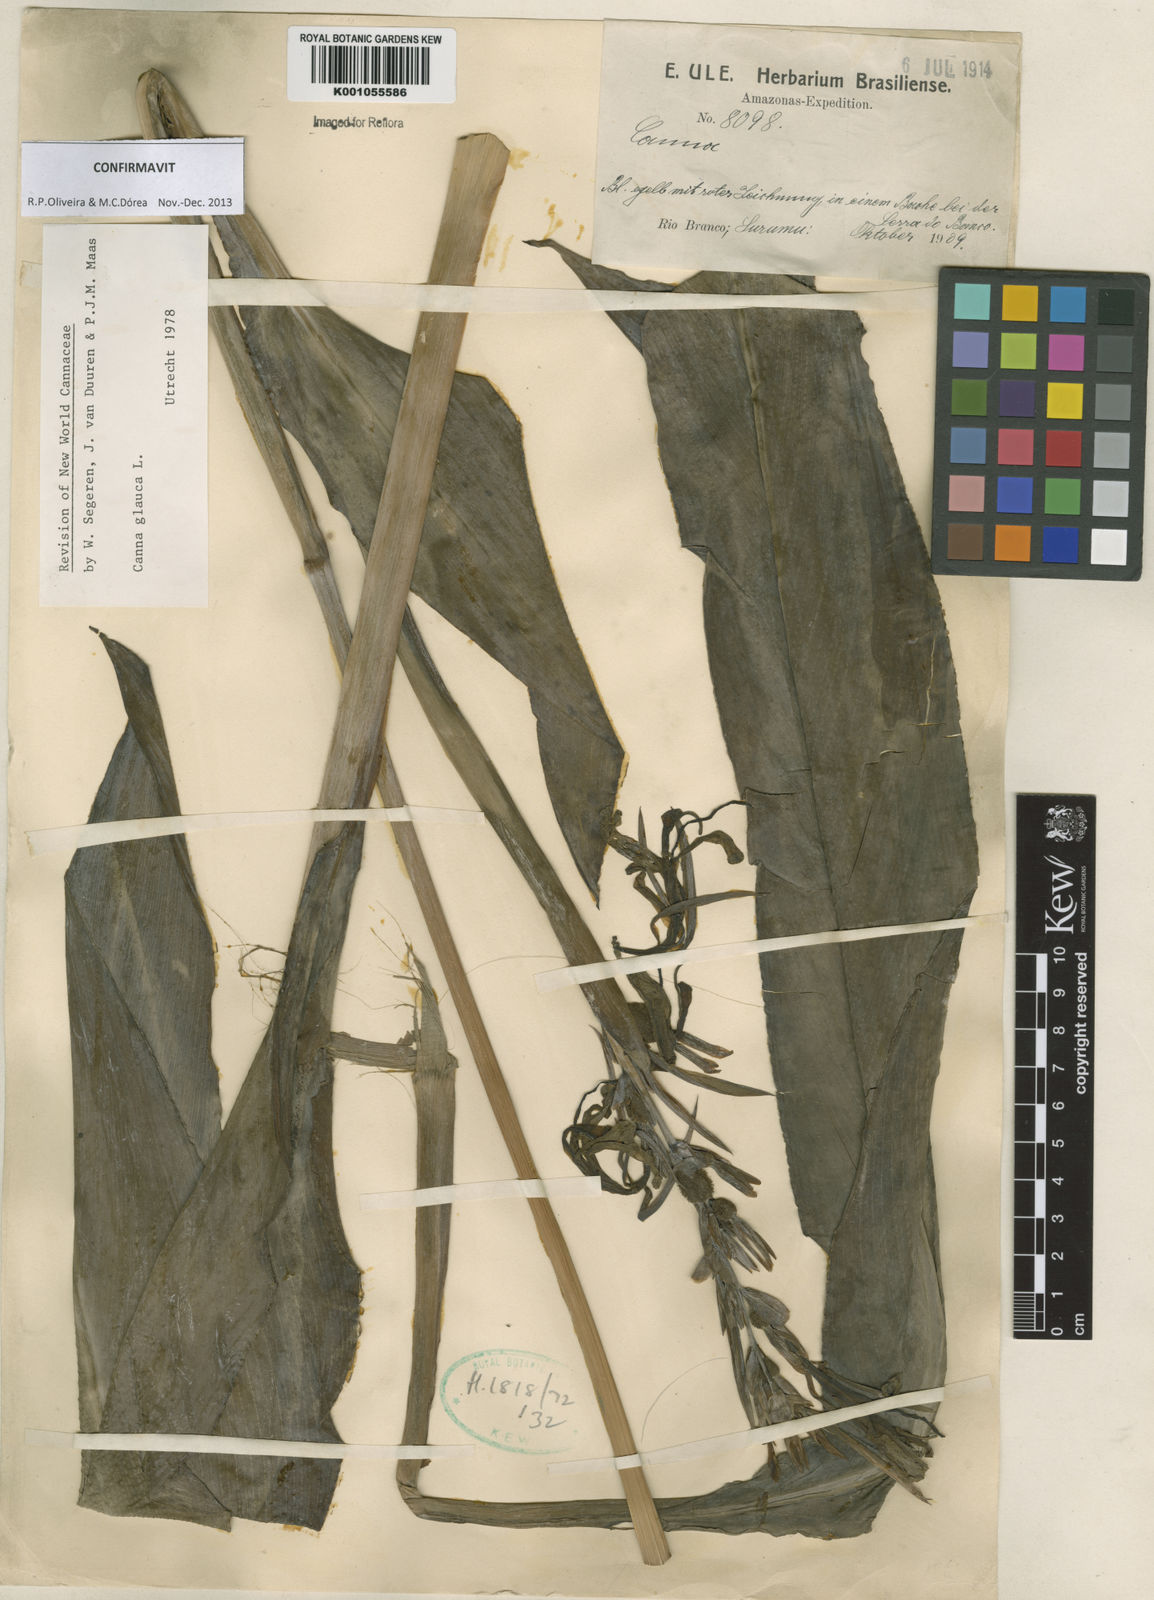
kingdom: Plantae
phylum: Tracheophyta
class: Liliopsida
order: Zingiberales
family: Cannaceae
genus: Canna
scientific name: Canna glauca
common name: Louisiana canna
